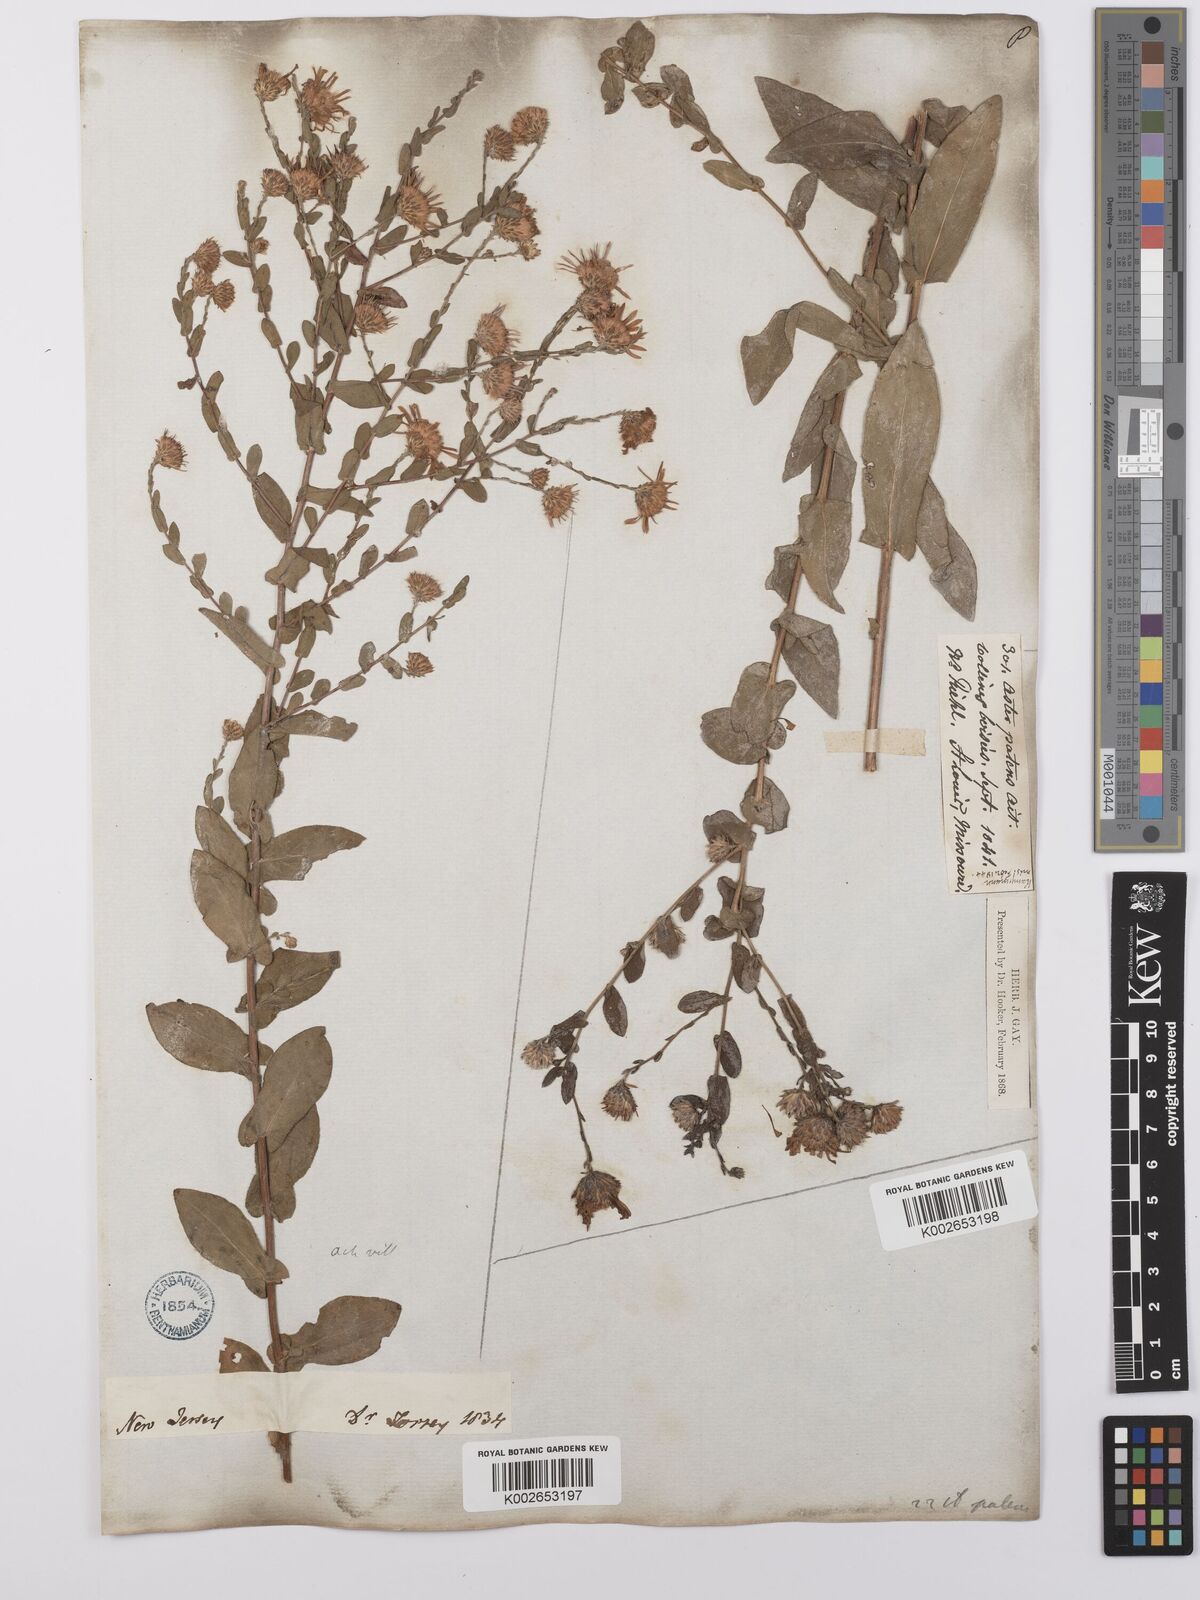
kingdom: Plantae
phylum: Tracheophyta
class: Magnoliopsida
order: Asterales
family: Asteraceae
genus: Symphyotrichum
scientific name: Symphyotrichum patens
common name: Late purple aster
